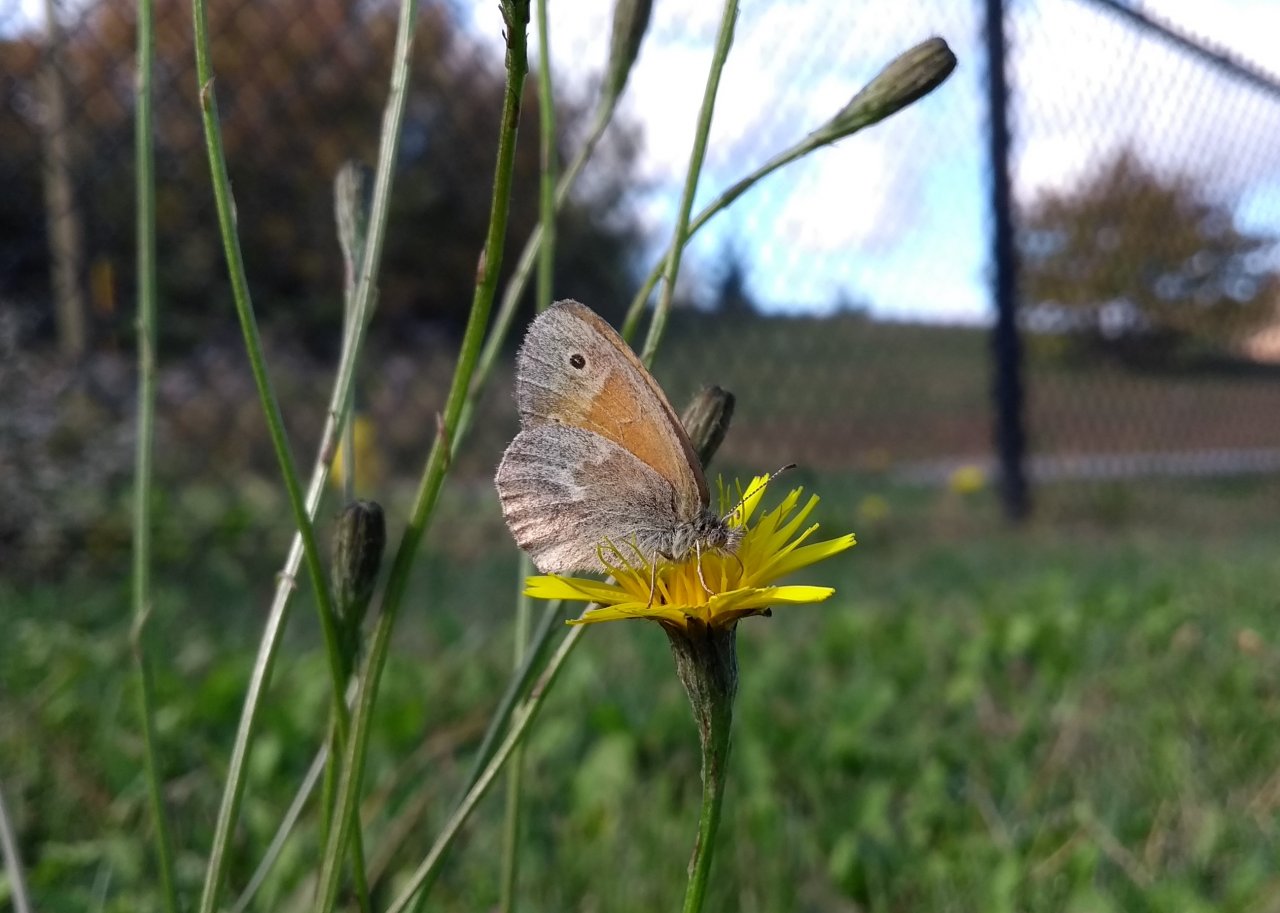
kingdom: Animalia
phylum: Arthropoda
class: Insecta
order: Lepidoptera
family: Nymphalidae
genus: Coenonympha
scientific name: Coenonympha tullia
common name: Large Heath
